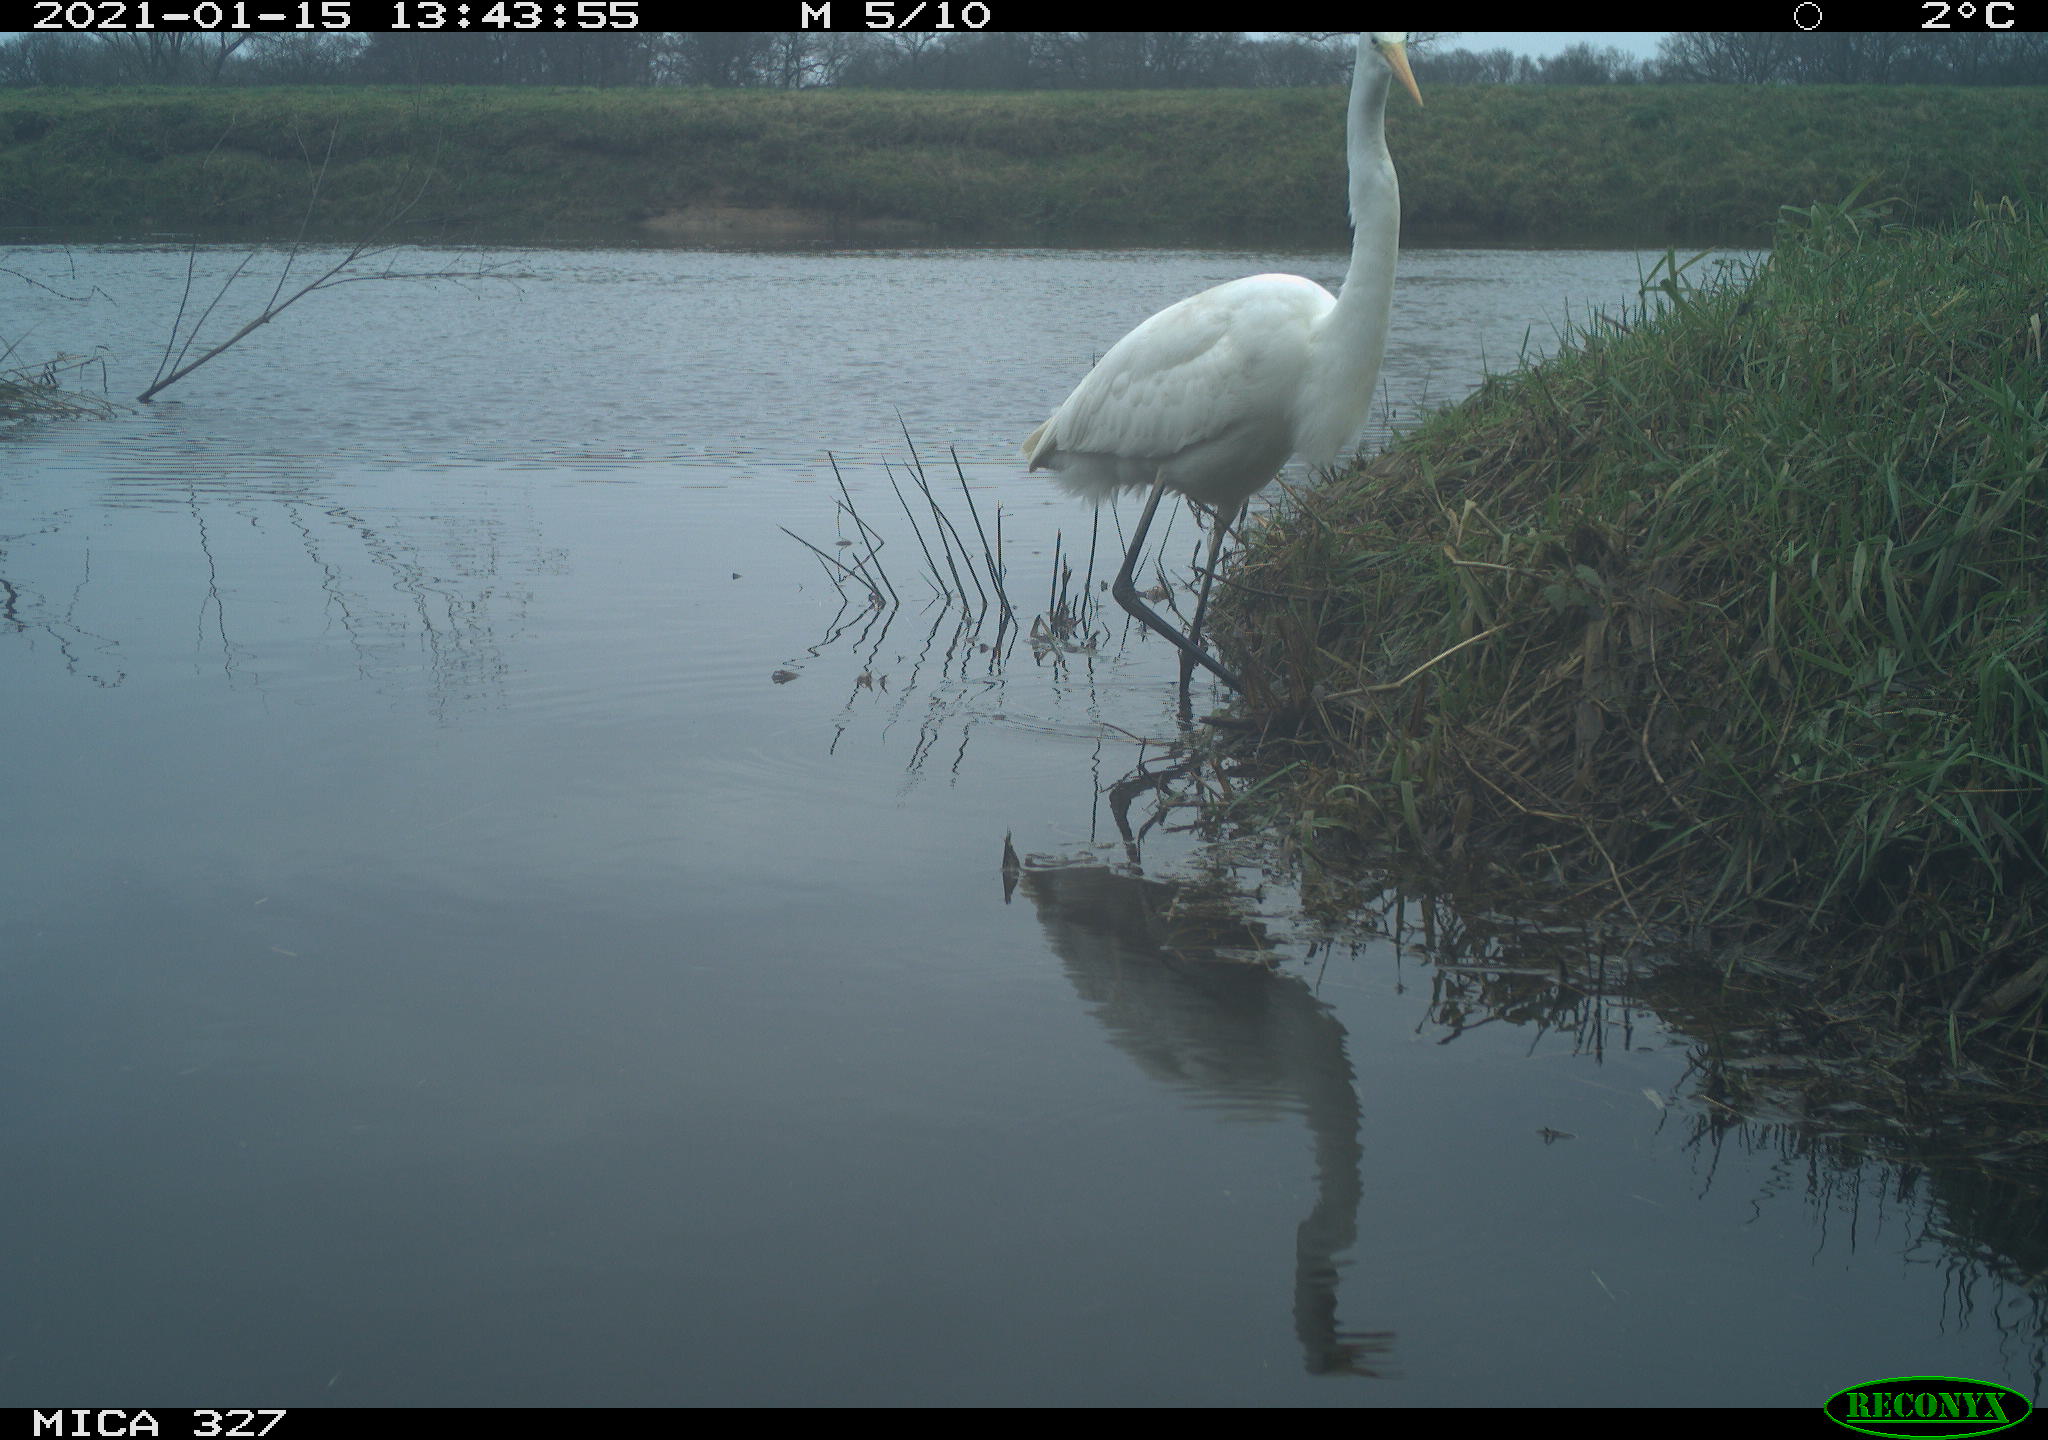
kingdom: Animalia
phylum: Chordata
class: Aves
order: Pelecaniformes
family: Ardeidae
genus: Ardea
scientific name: Ardea alba
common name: Great egret
